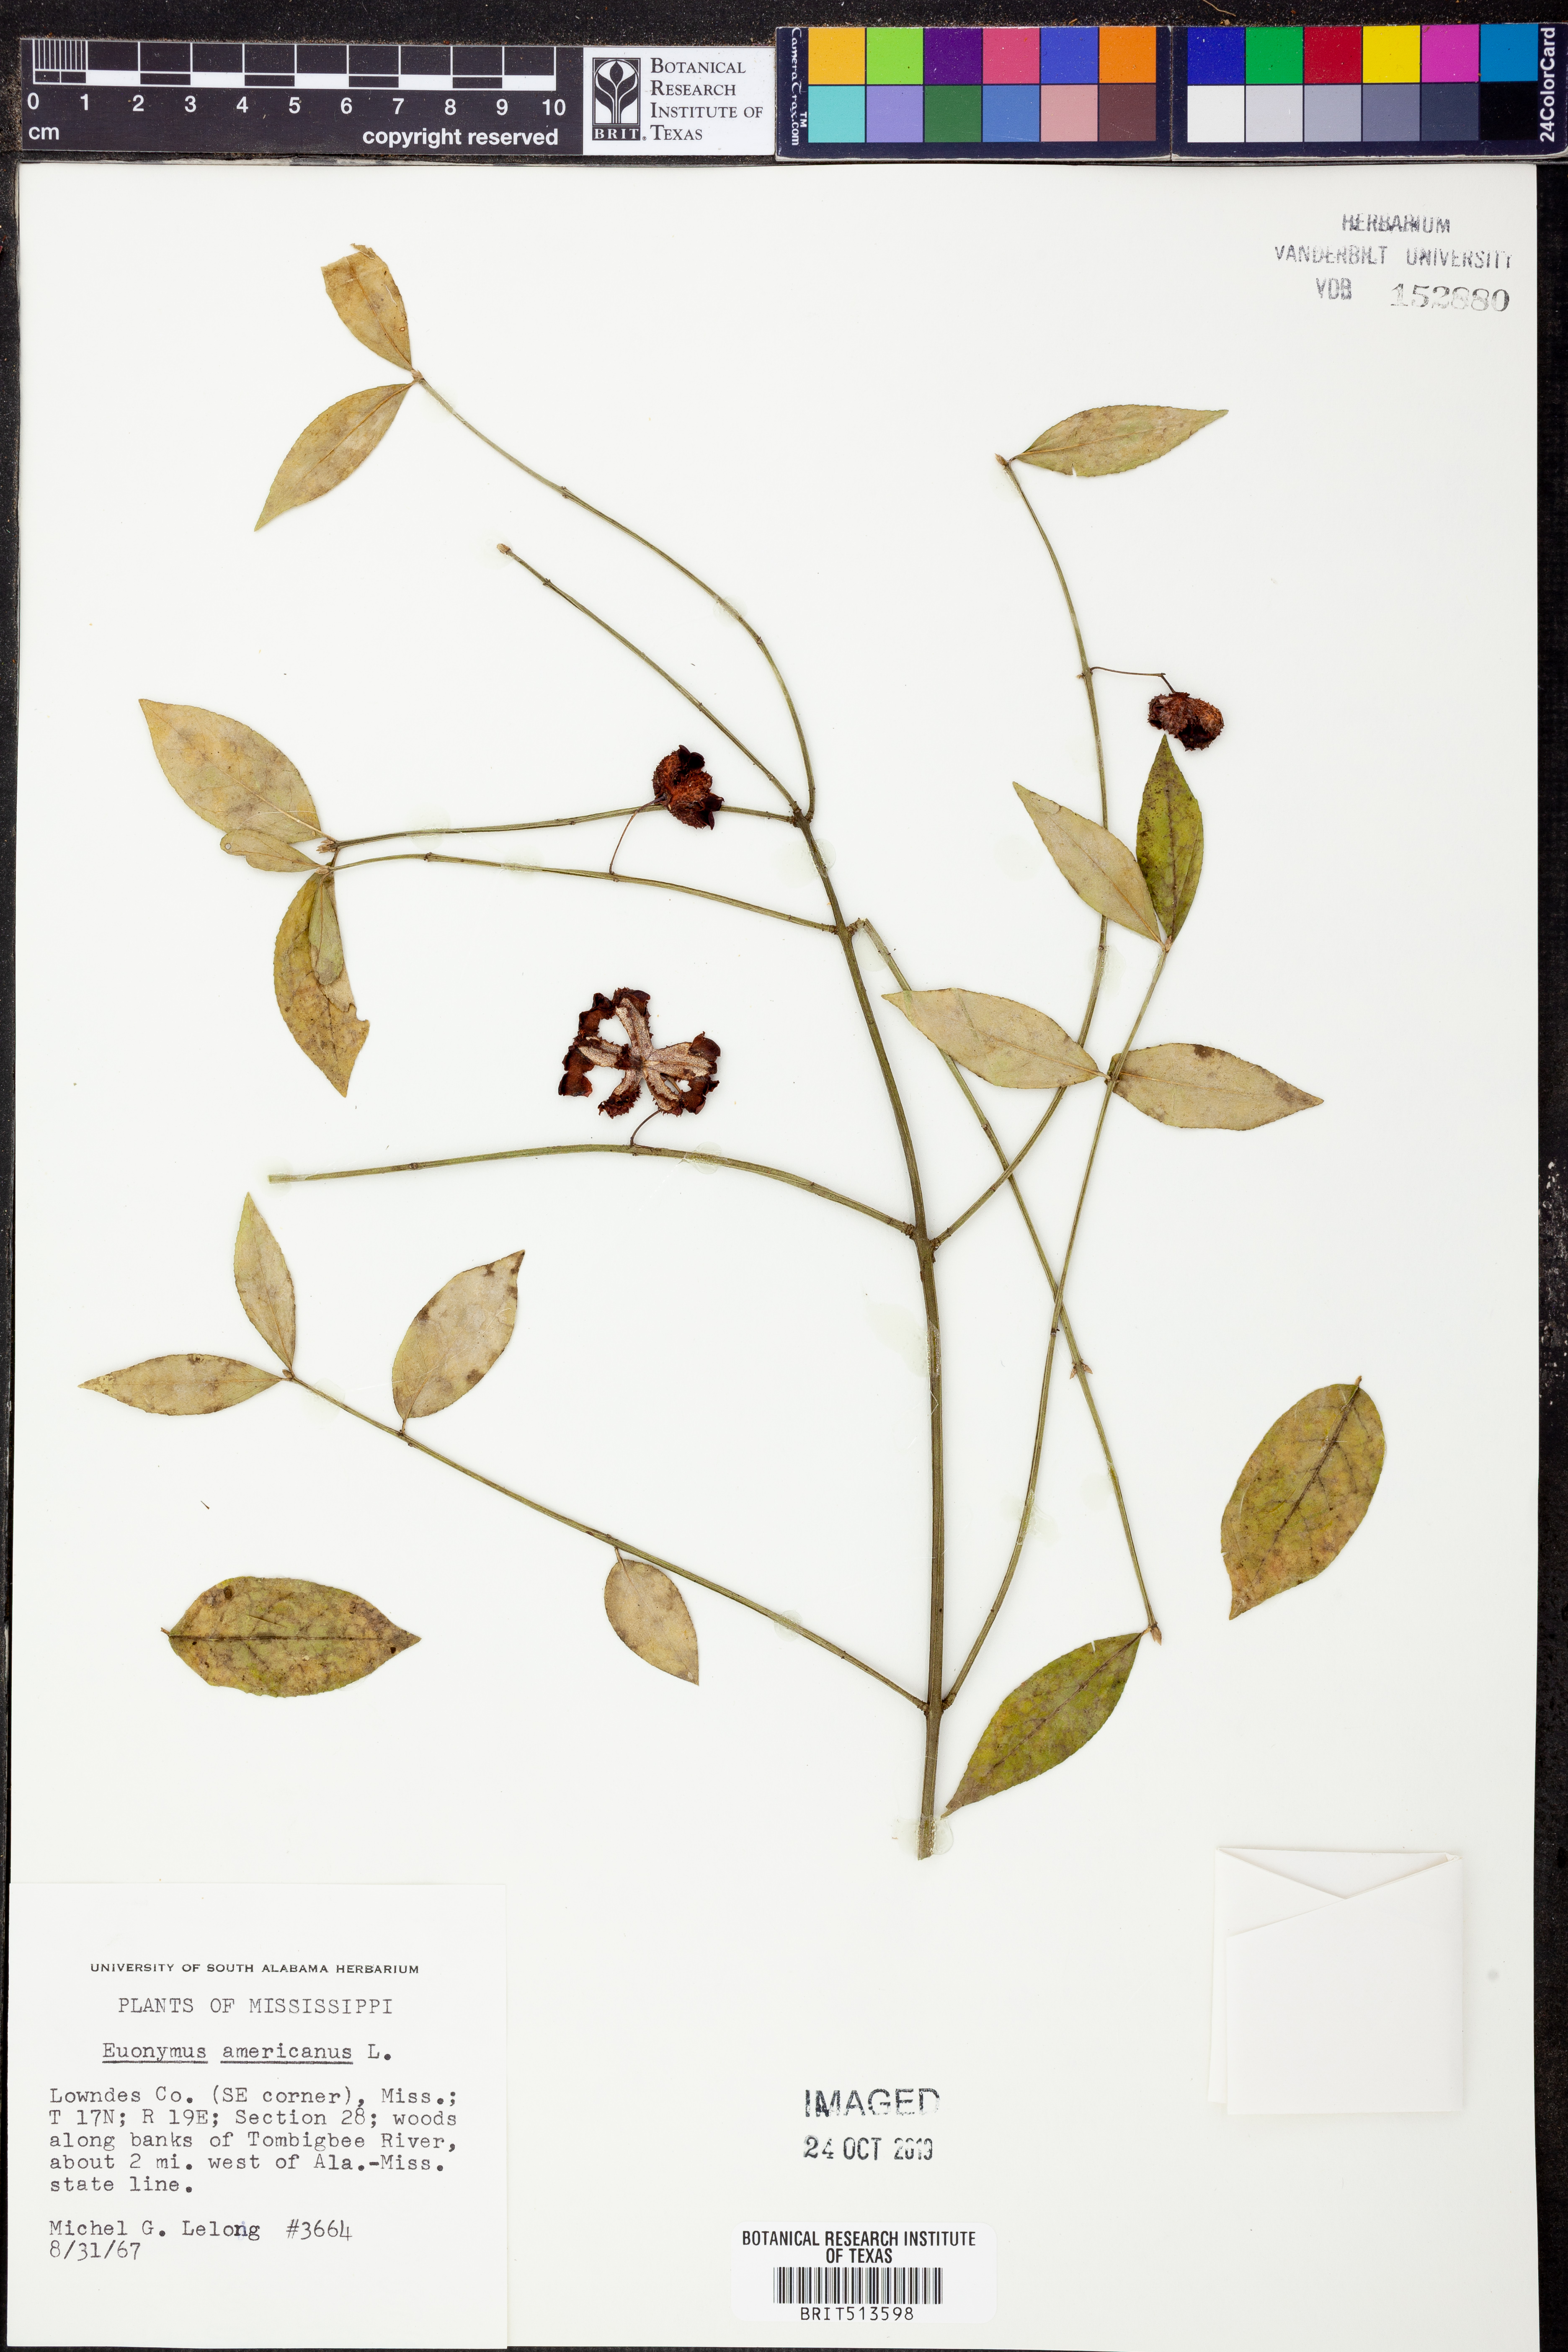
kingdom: Plantae
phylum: Tracheophyta
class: Magnoliopsida
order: Celastrales
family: Celastraceae
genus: Euonymus
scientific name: Euonymus americanus
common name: Bursting-heart
